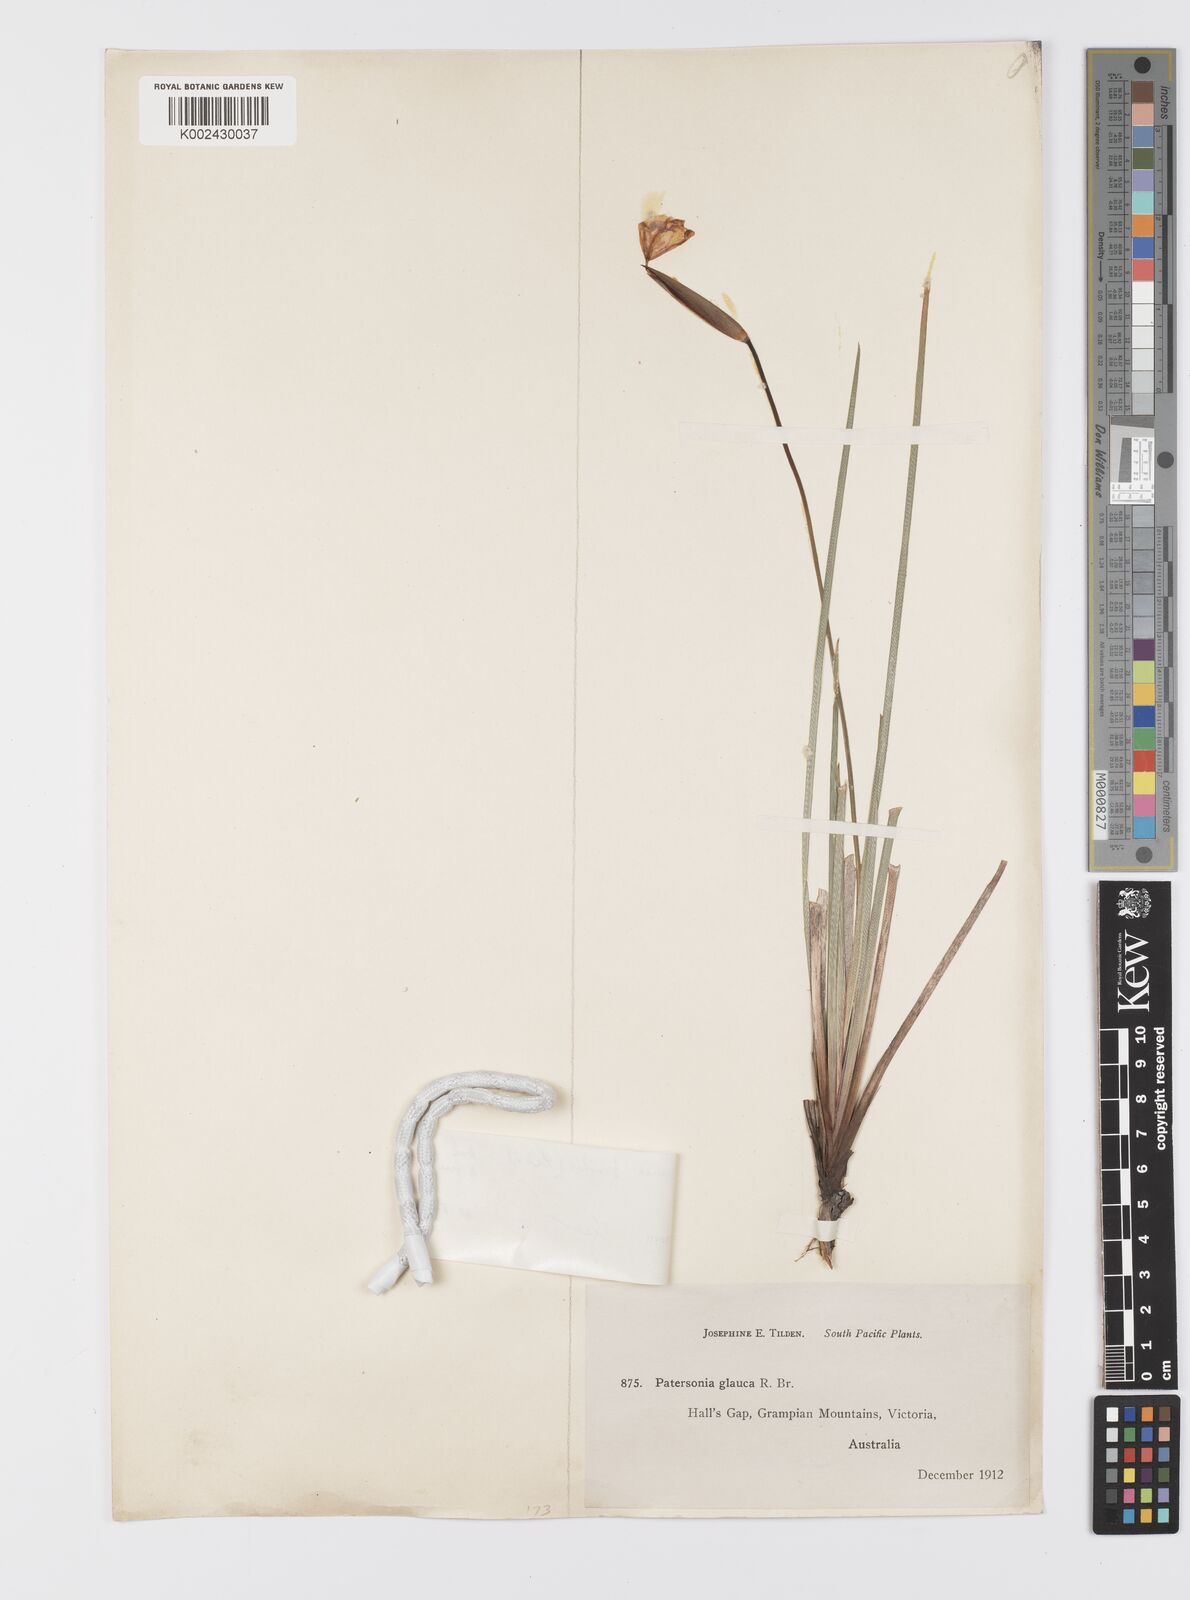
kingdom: Plantae
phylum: Tracheophyta
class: Liliopsida
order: Asparagales
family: Iridaceae
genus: Patersonia
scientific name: Patersonia fragilis
